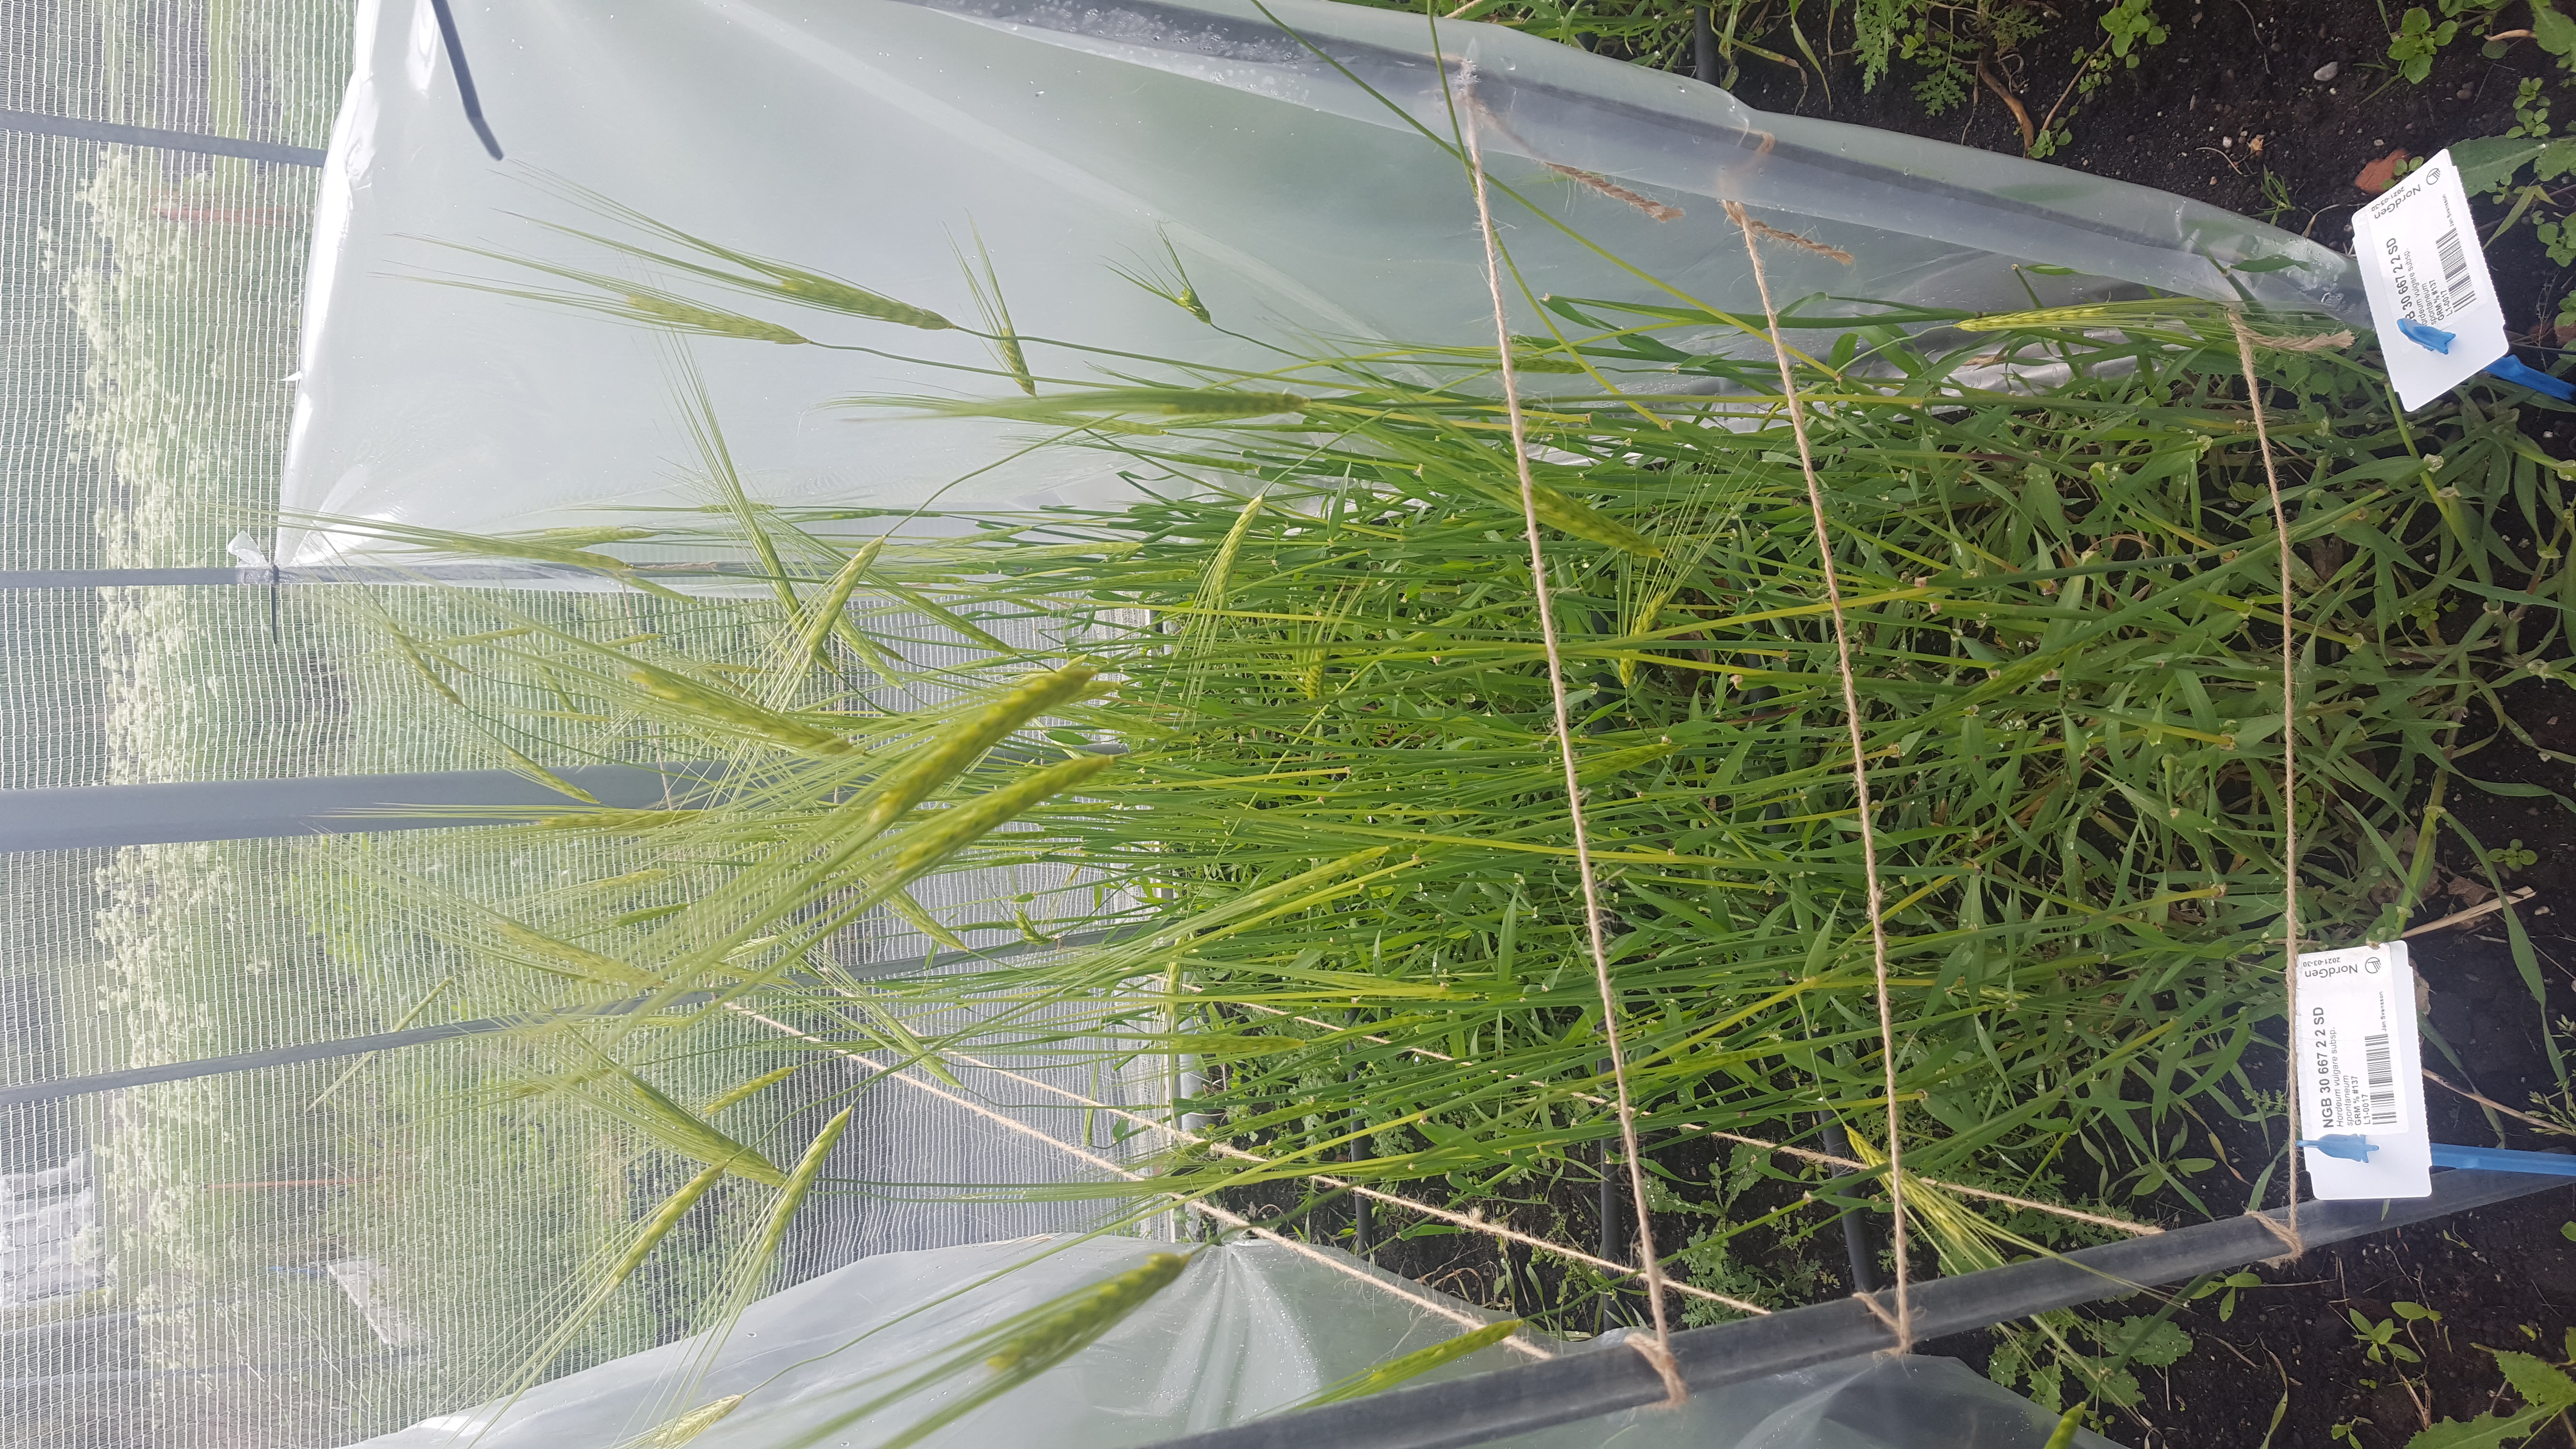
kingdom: Plantae
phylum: Tracheophyta
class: Liliopsida
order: Poales
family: Poaceae
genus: Hordeum
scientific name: Hordeum spontaneum
